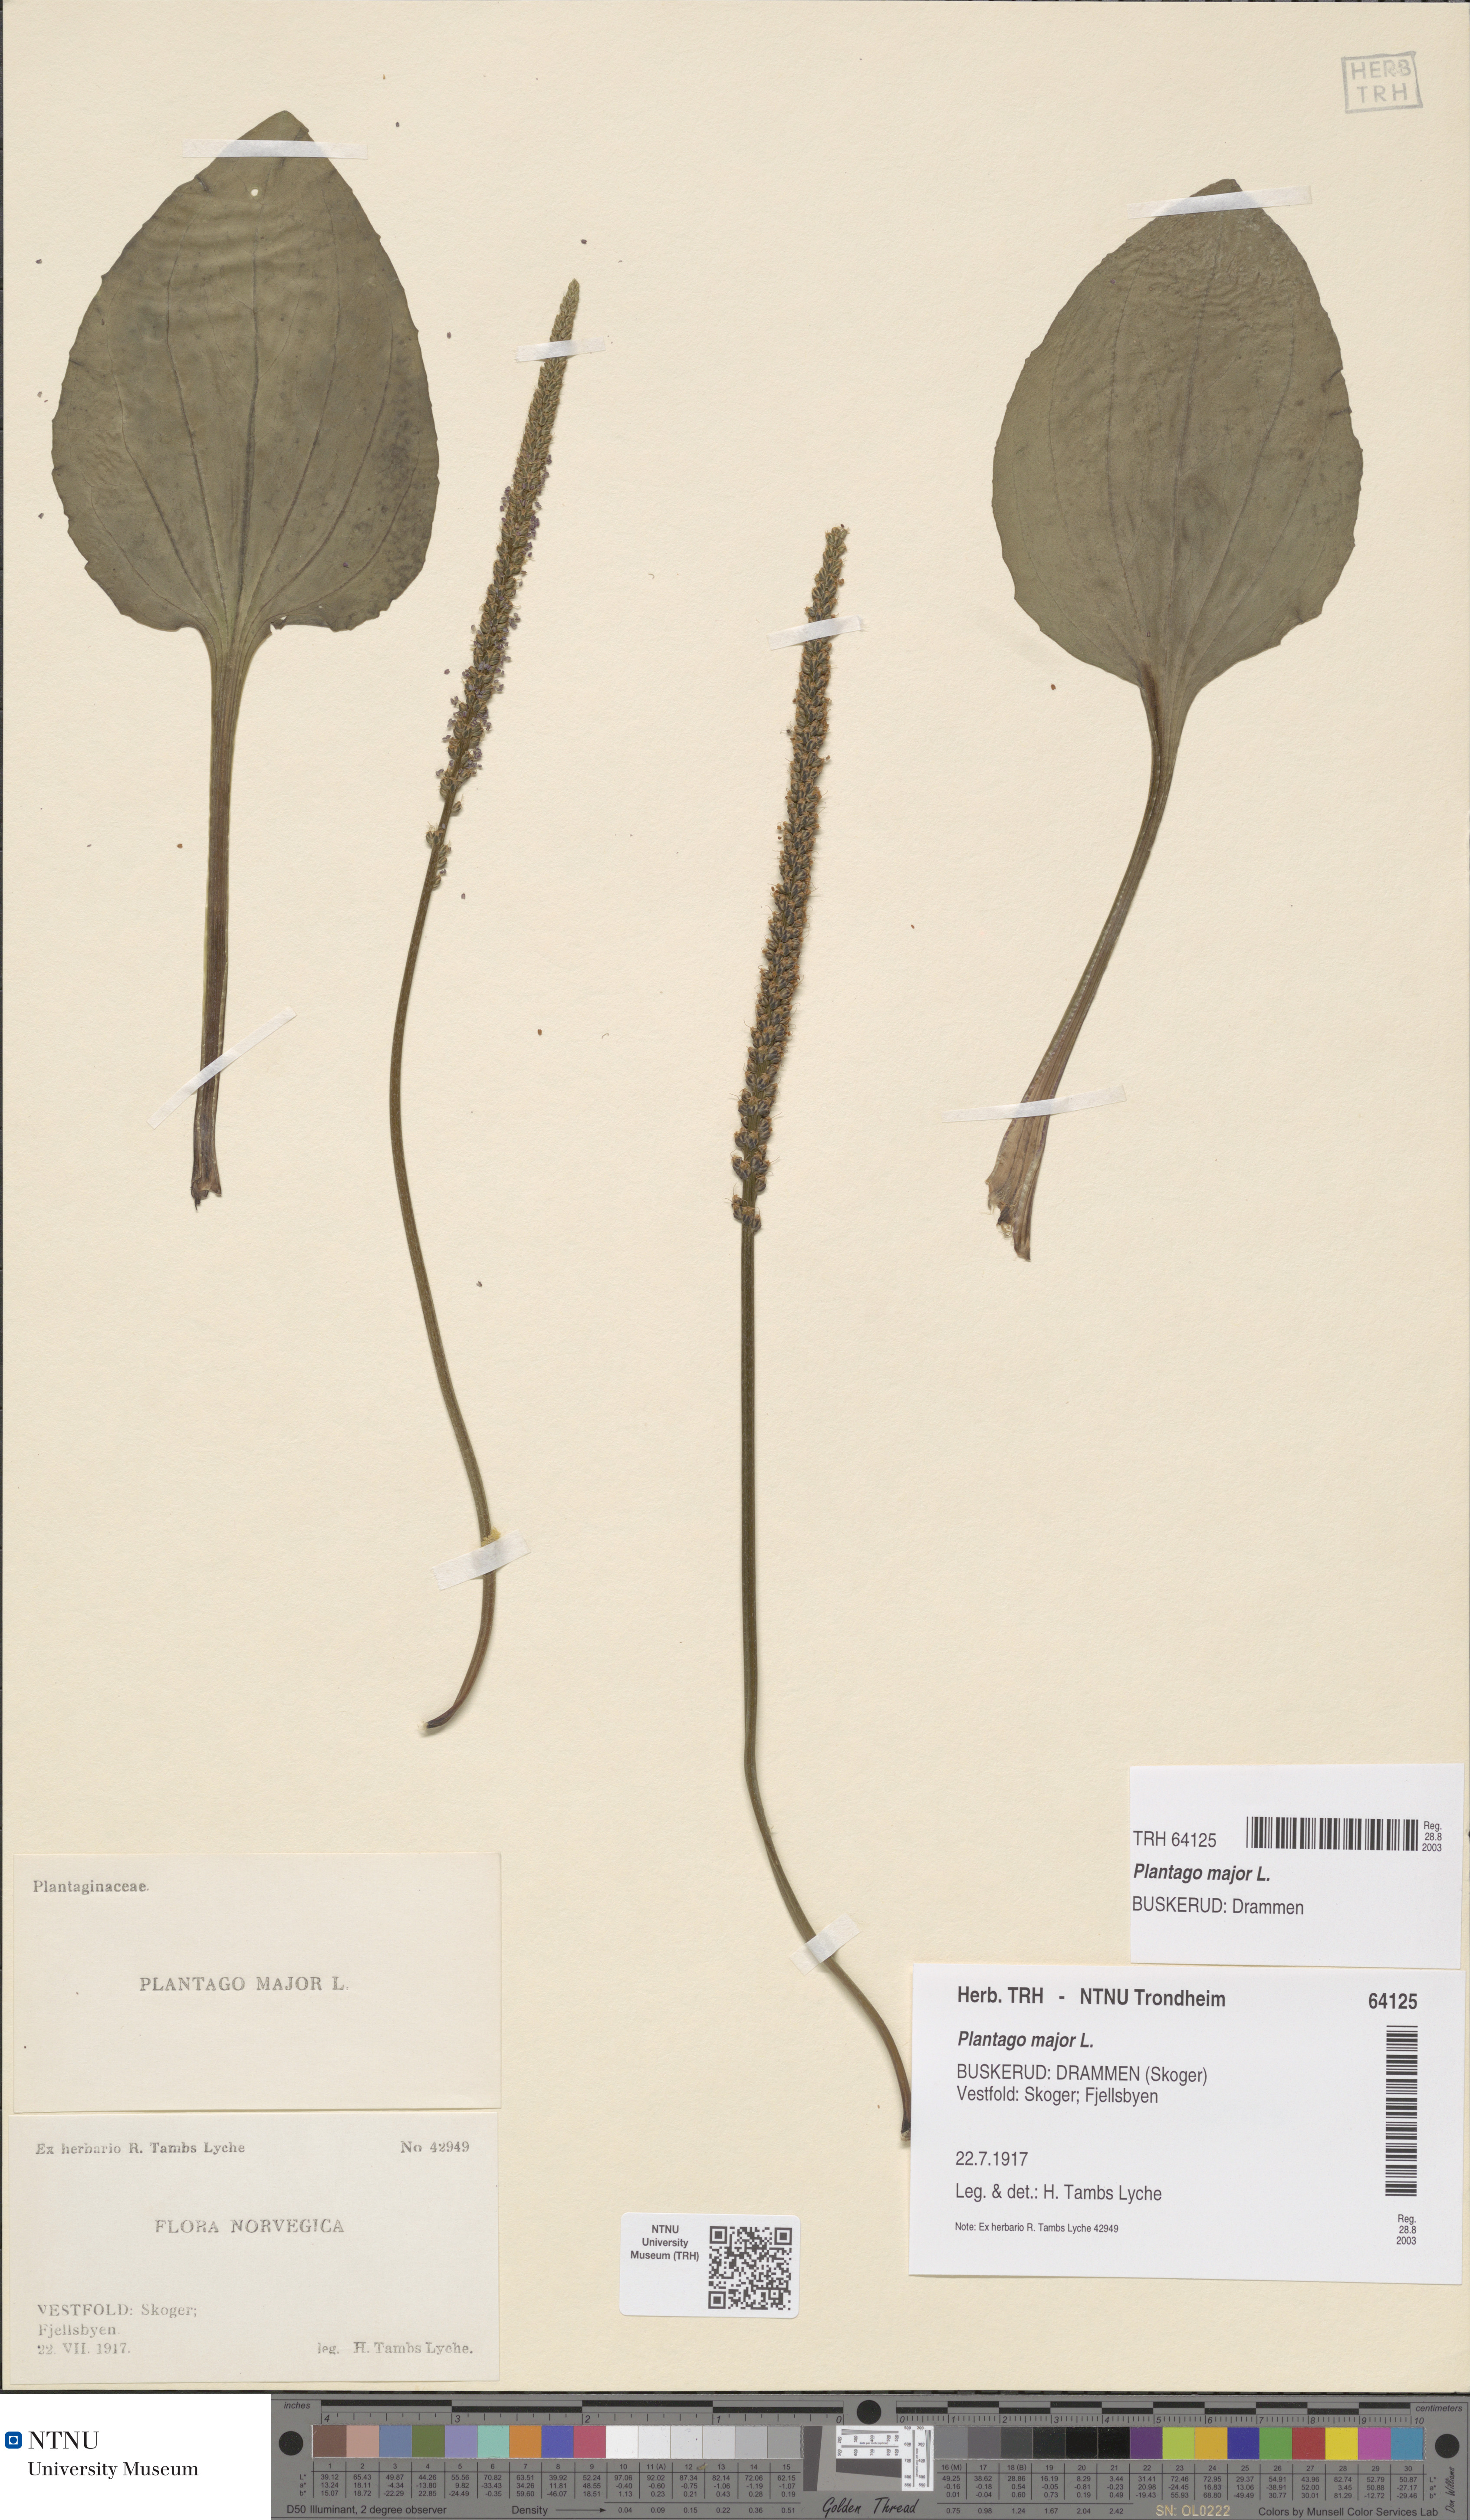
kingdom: Plantae
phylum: Tracheophyta
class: Magnoliopsida
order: Lamiales
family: Plantaginaceae
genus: Plantago
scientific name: Plantago major
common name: Common plantain
